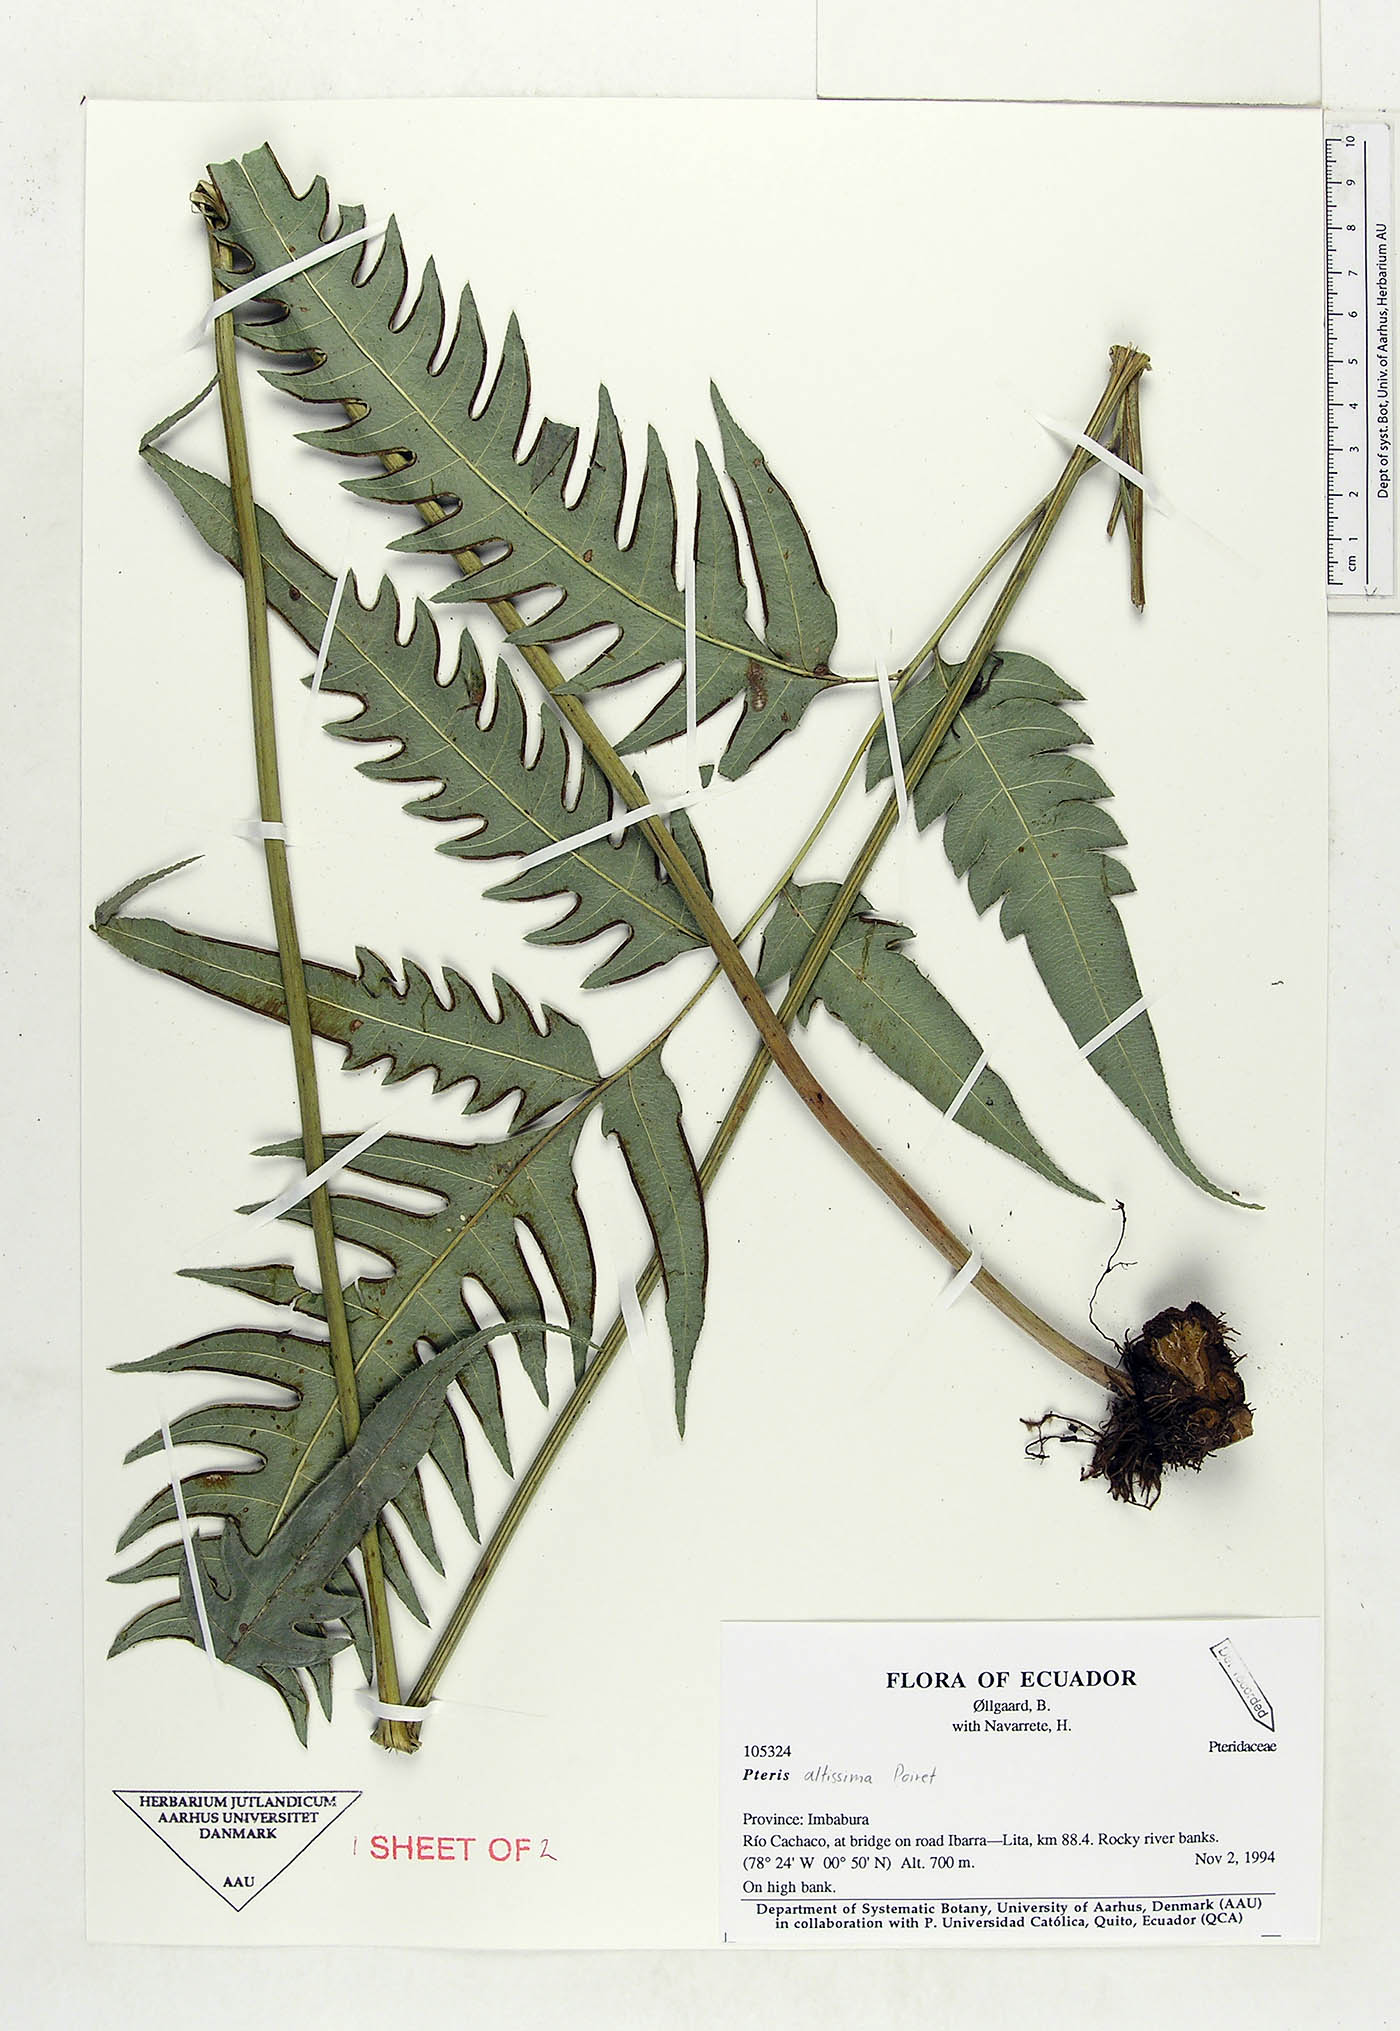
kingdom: Plantae
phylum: Tracheophyta
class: Polypodiopsida
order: Polypodiales
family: Pteridaceae
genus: Pteris
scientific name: Pteris altissima
